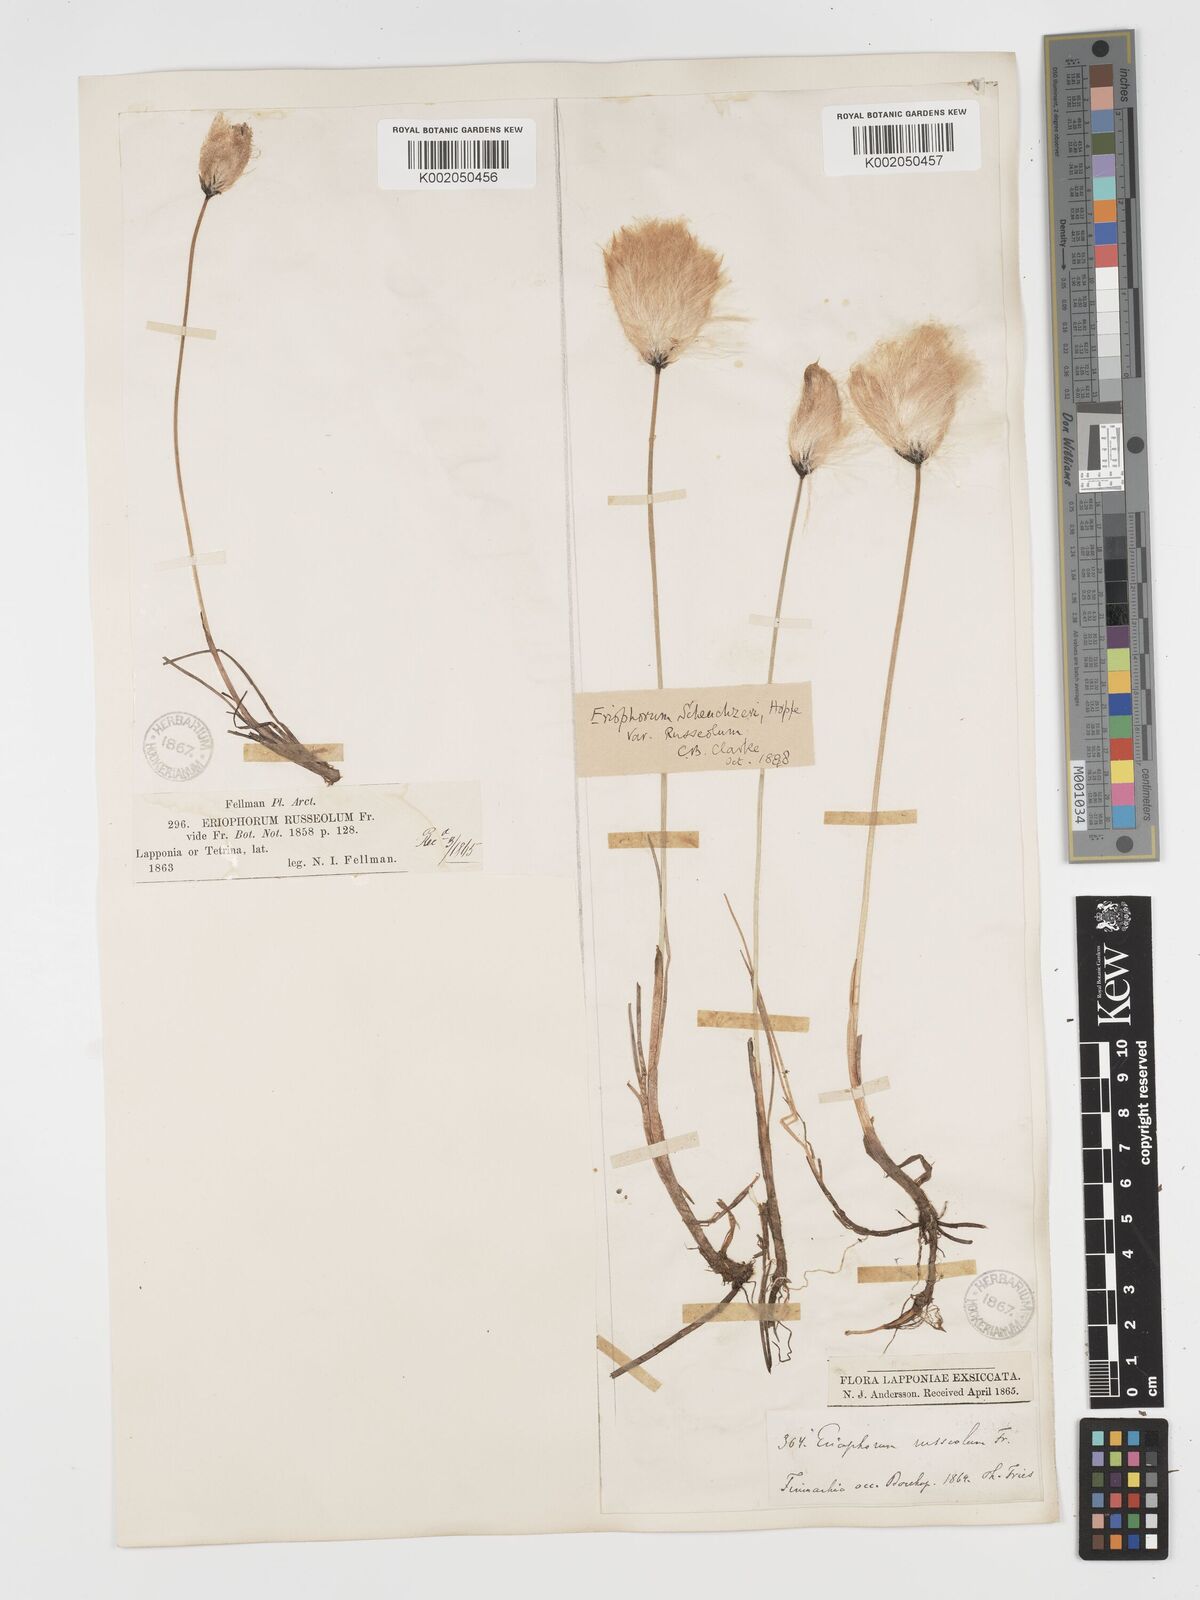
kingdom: Plantae
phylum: Tracheophyta
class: Liliopsida
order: Poales
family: Cyperaceae
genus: Eriophorum
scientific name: Eriophorum scheuchzeri
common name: Scheuchzer's cottongrass
